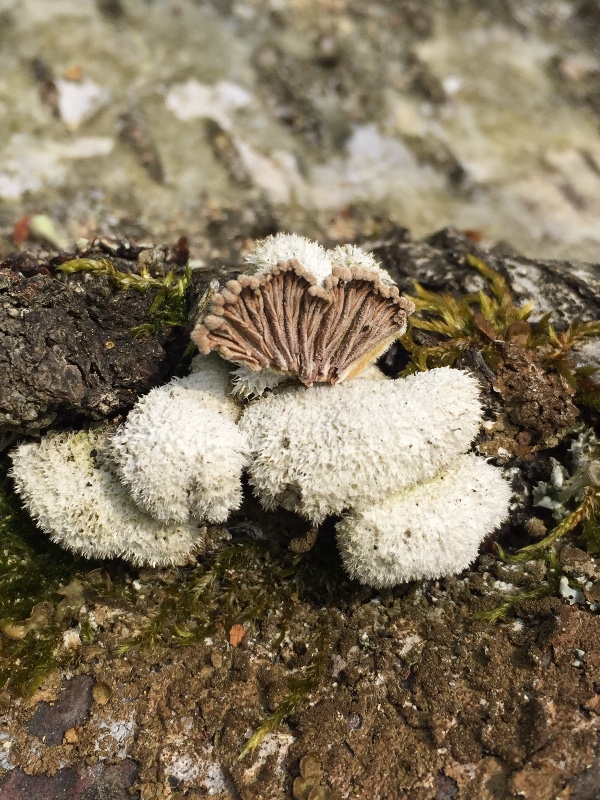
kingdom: Fungi
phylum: Basidiomycota
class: Agaricomycetes
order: Agaricales
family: Schizophyllaceae
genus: Schizophyllum
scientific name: Schizophyllum commune
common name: kløvblad
